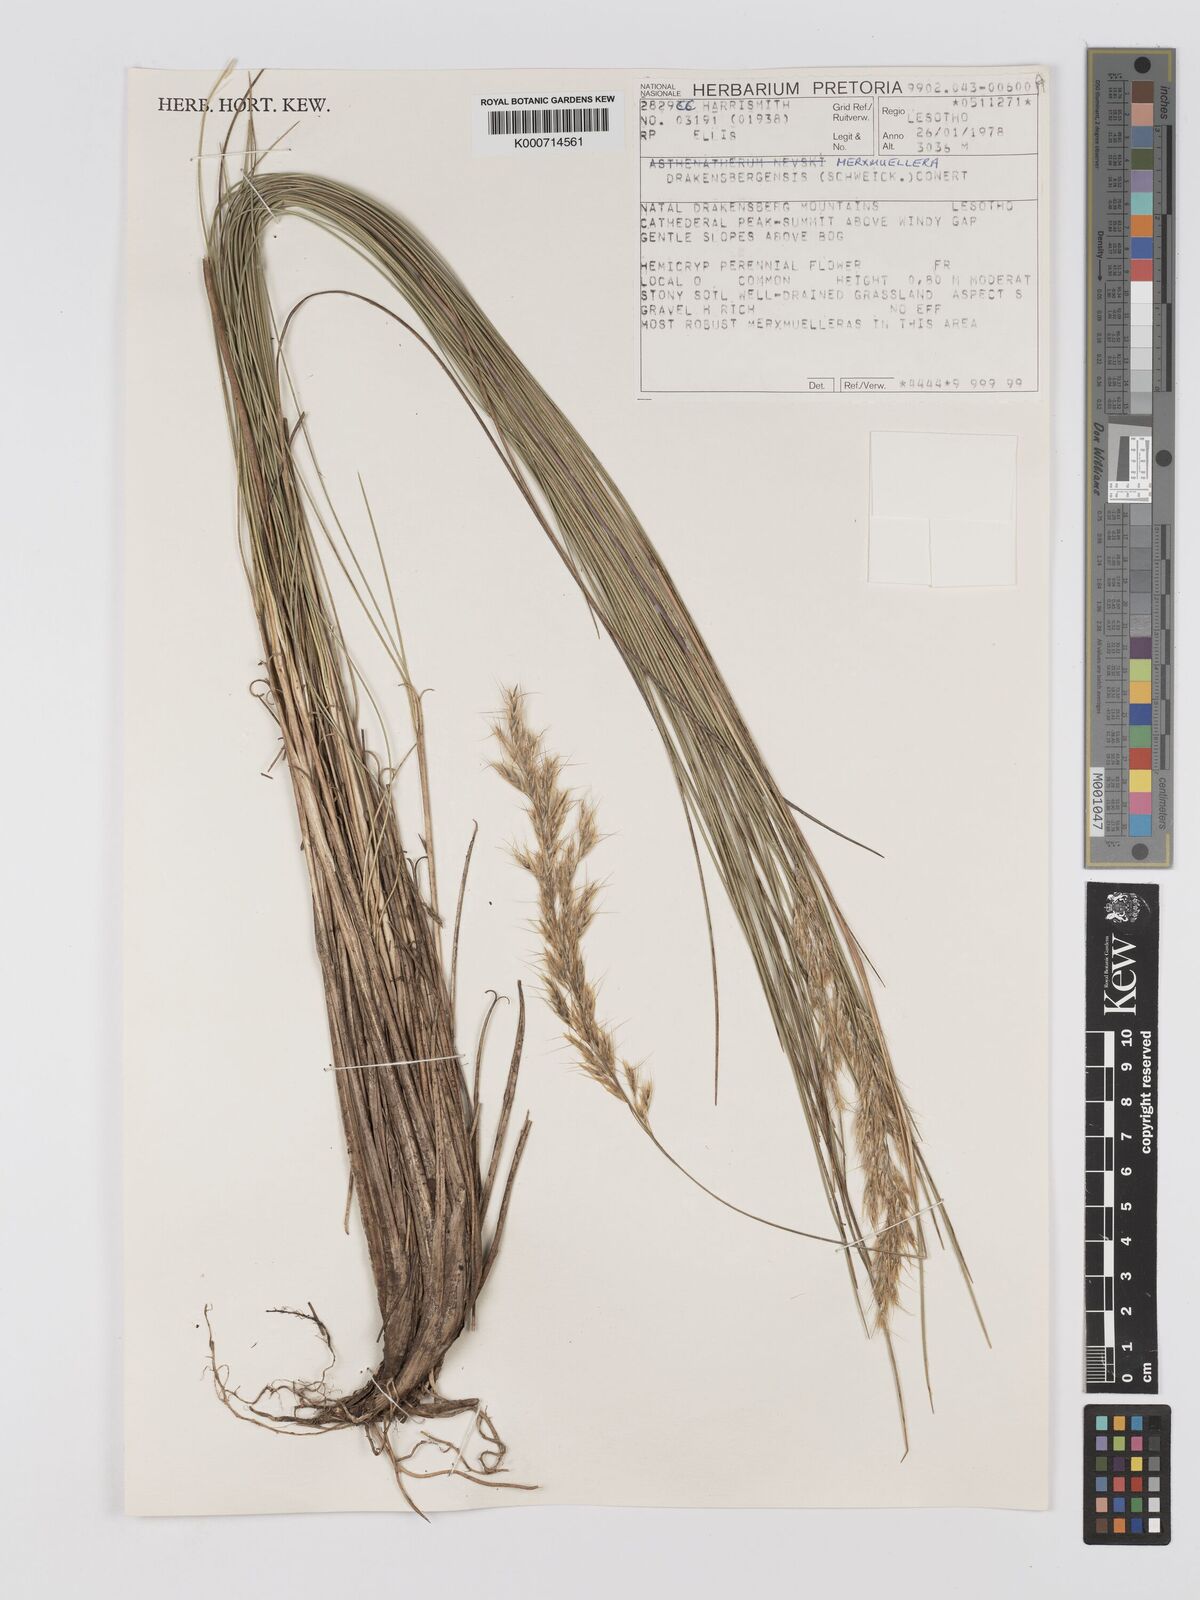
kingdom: Plantae
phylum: Tracheophyta
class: Liliopsida
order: Poales
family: Poaceae
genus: Rytidosperma
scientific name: Rytidosperma
